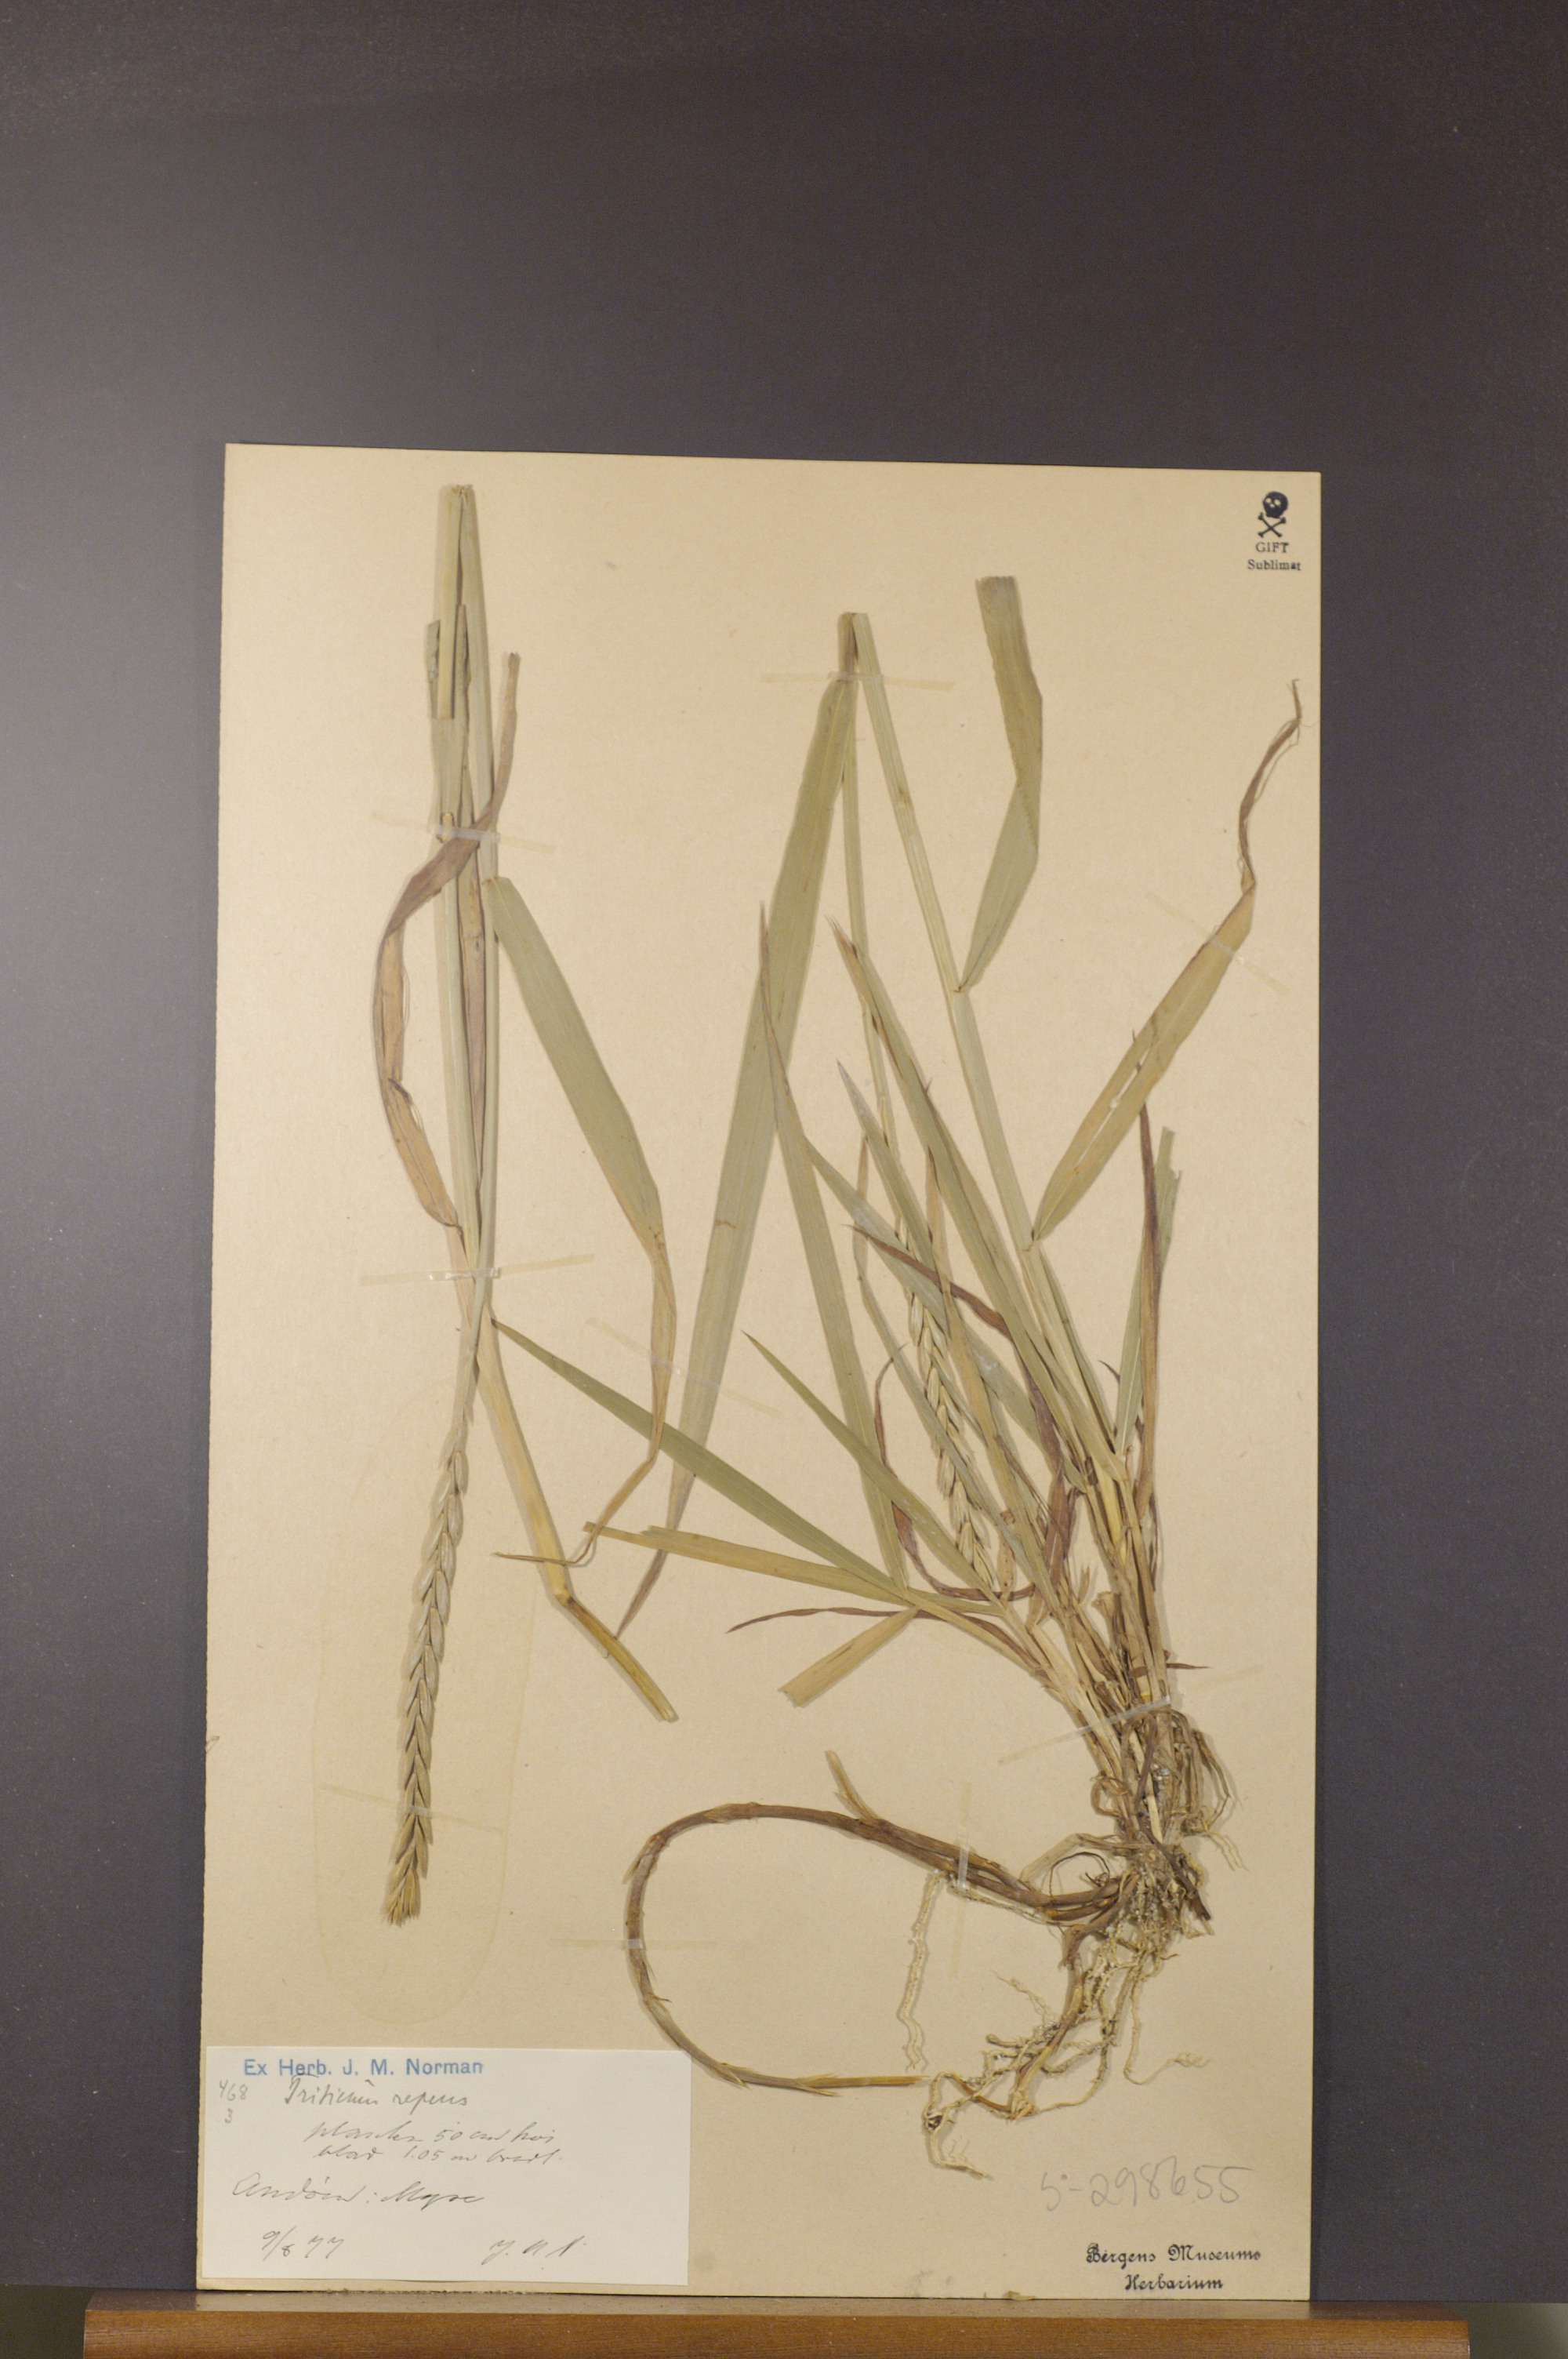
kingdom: Plantae
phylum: Tracheophyta
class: Liliopsida
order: Poales
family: Poaceae
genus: Elymus
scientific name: Elymus repens
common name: Quackgrass
